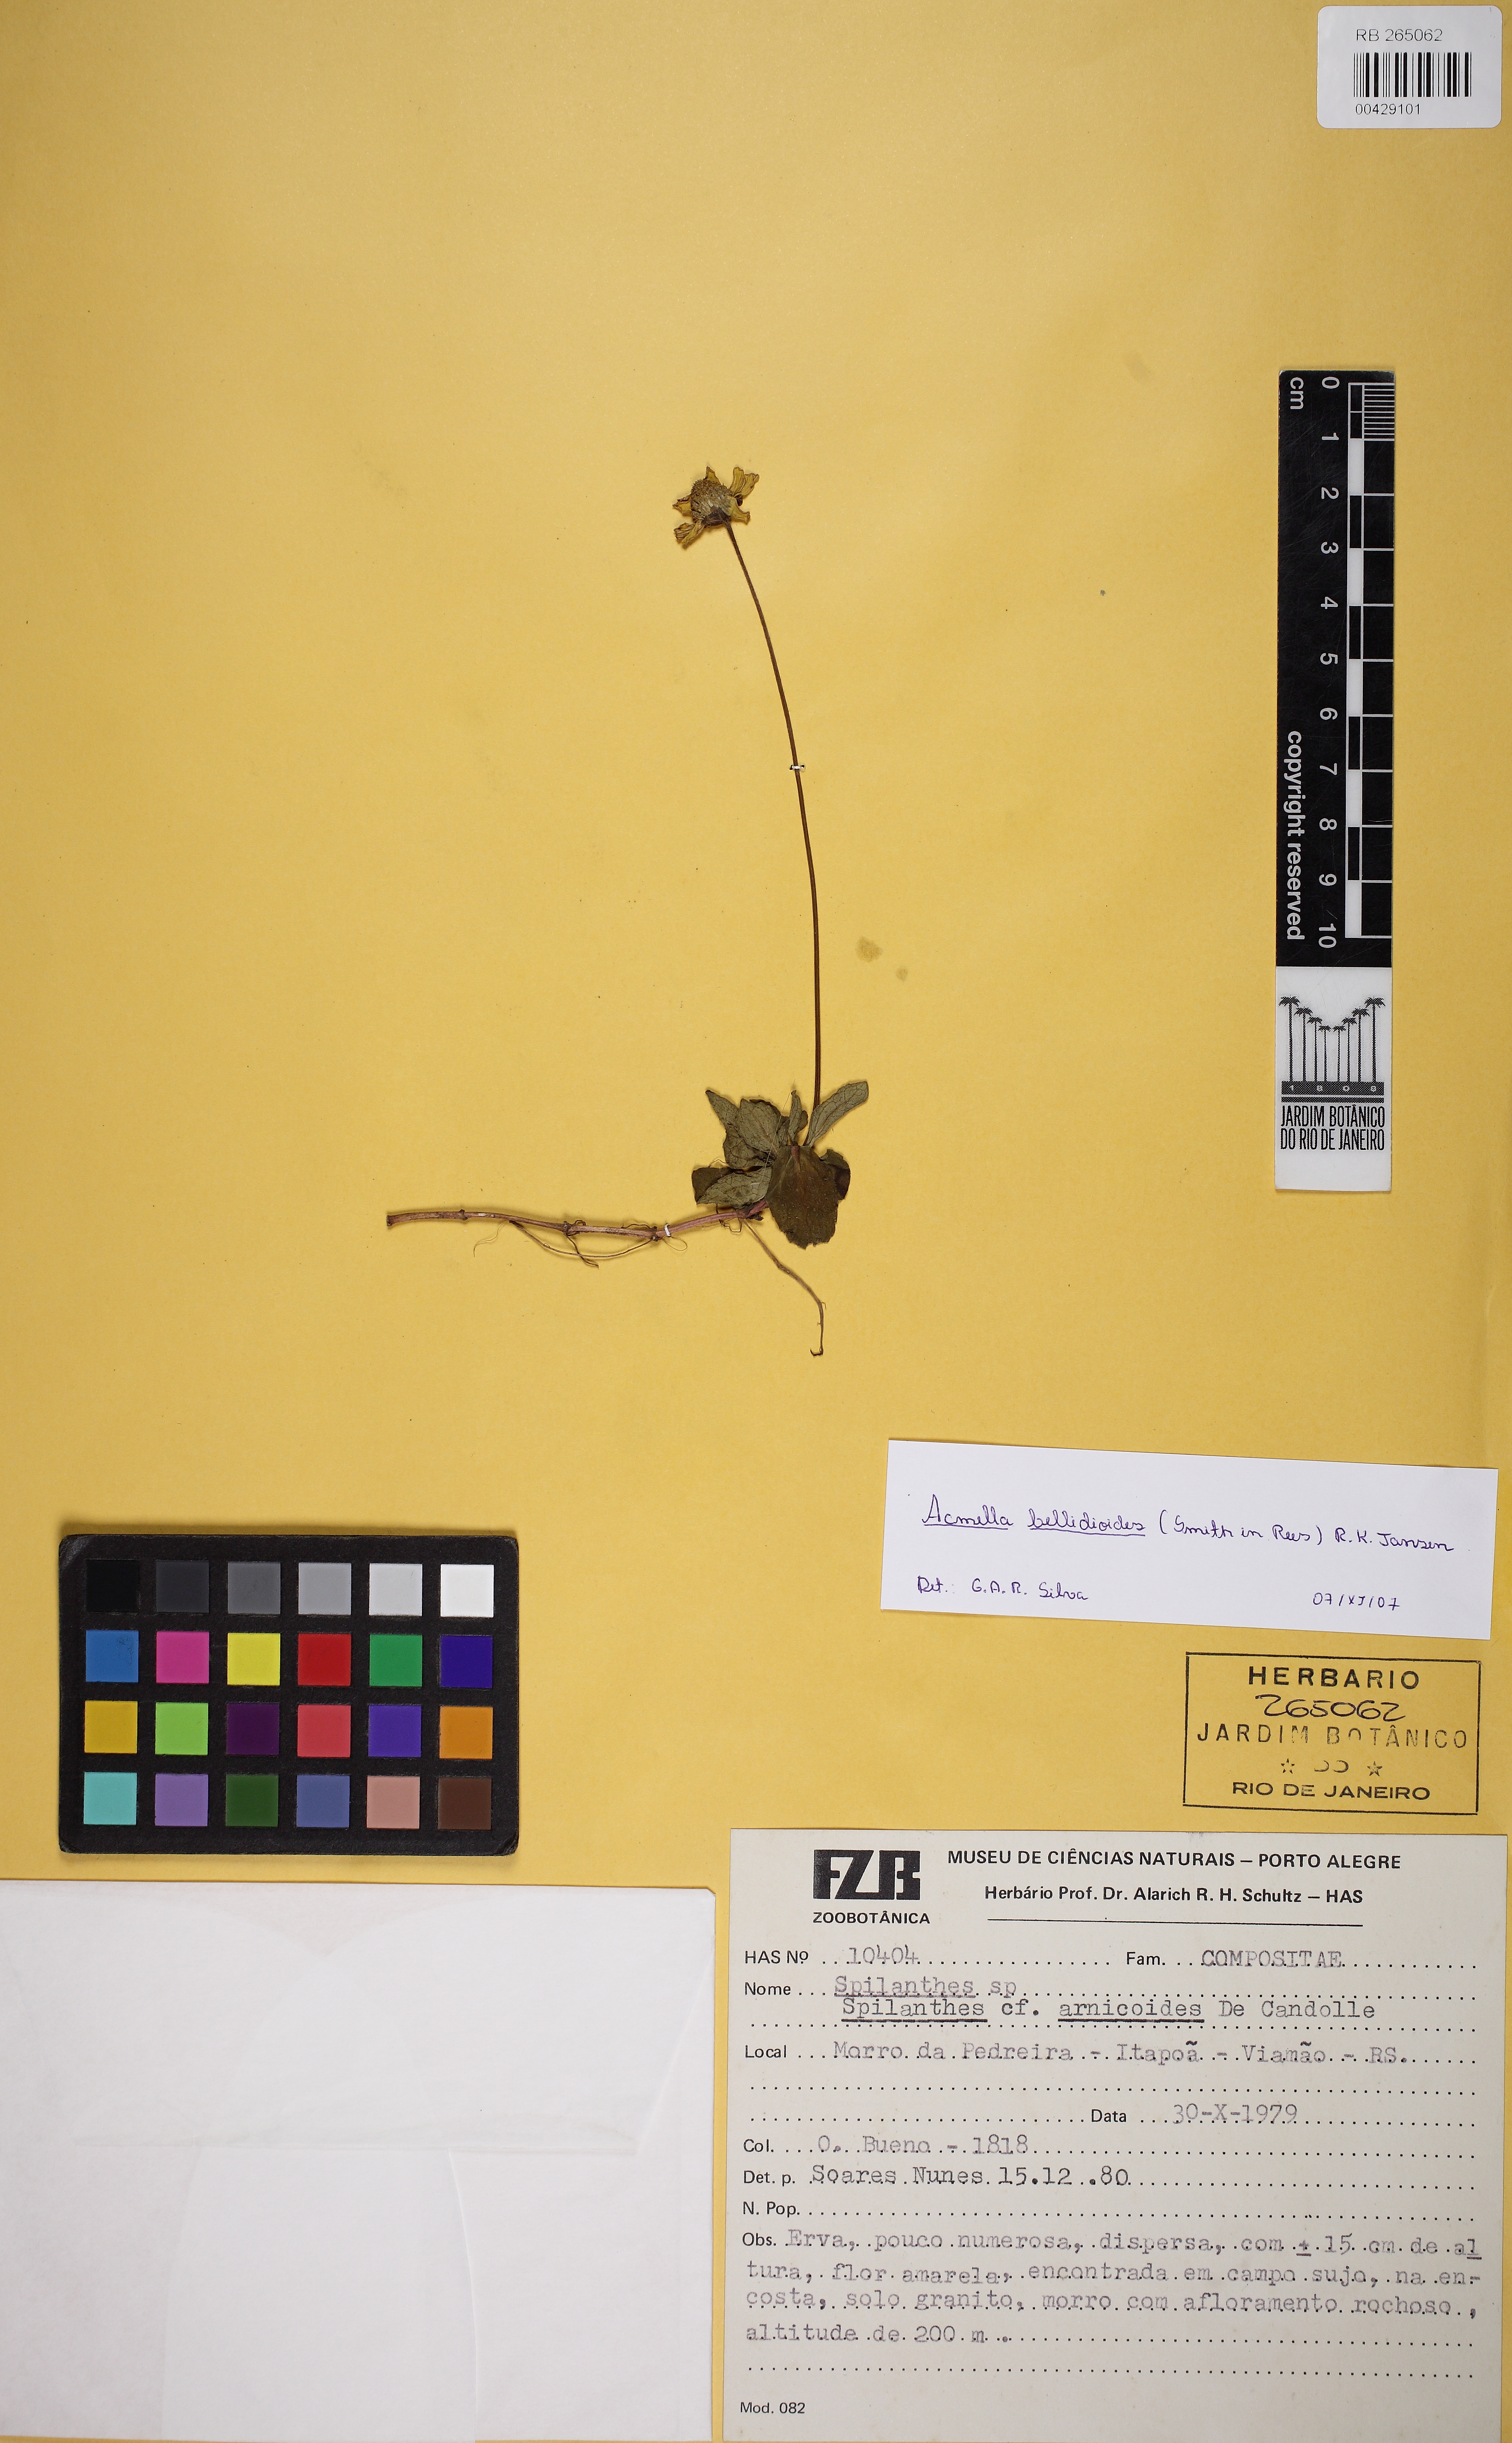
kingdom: Plantae
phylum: Tracheophyta
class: Magnoliopsida
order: Asterales
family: Asteraceae
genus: Acmella
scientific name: Acmella bellidioides
